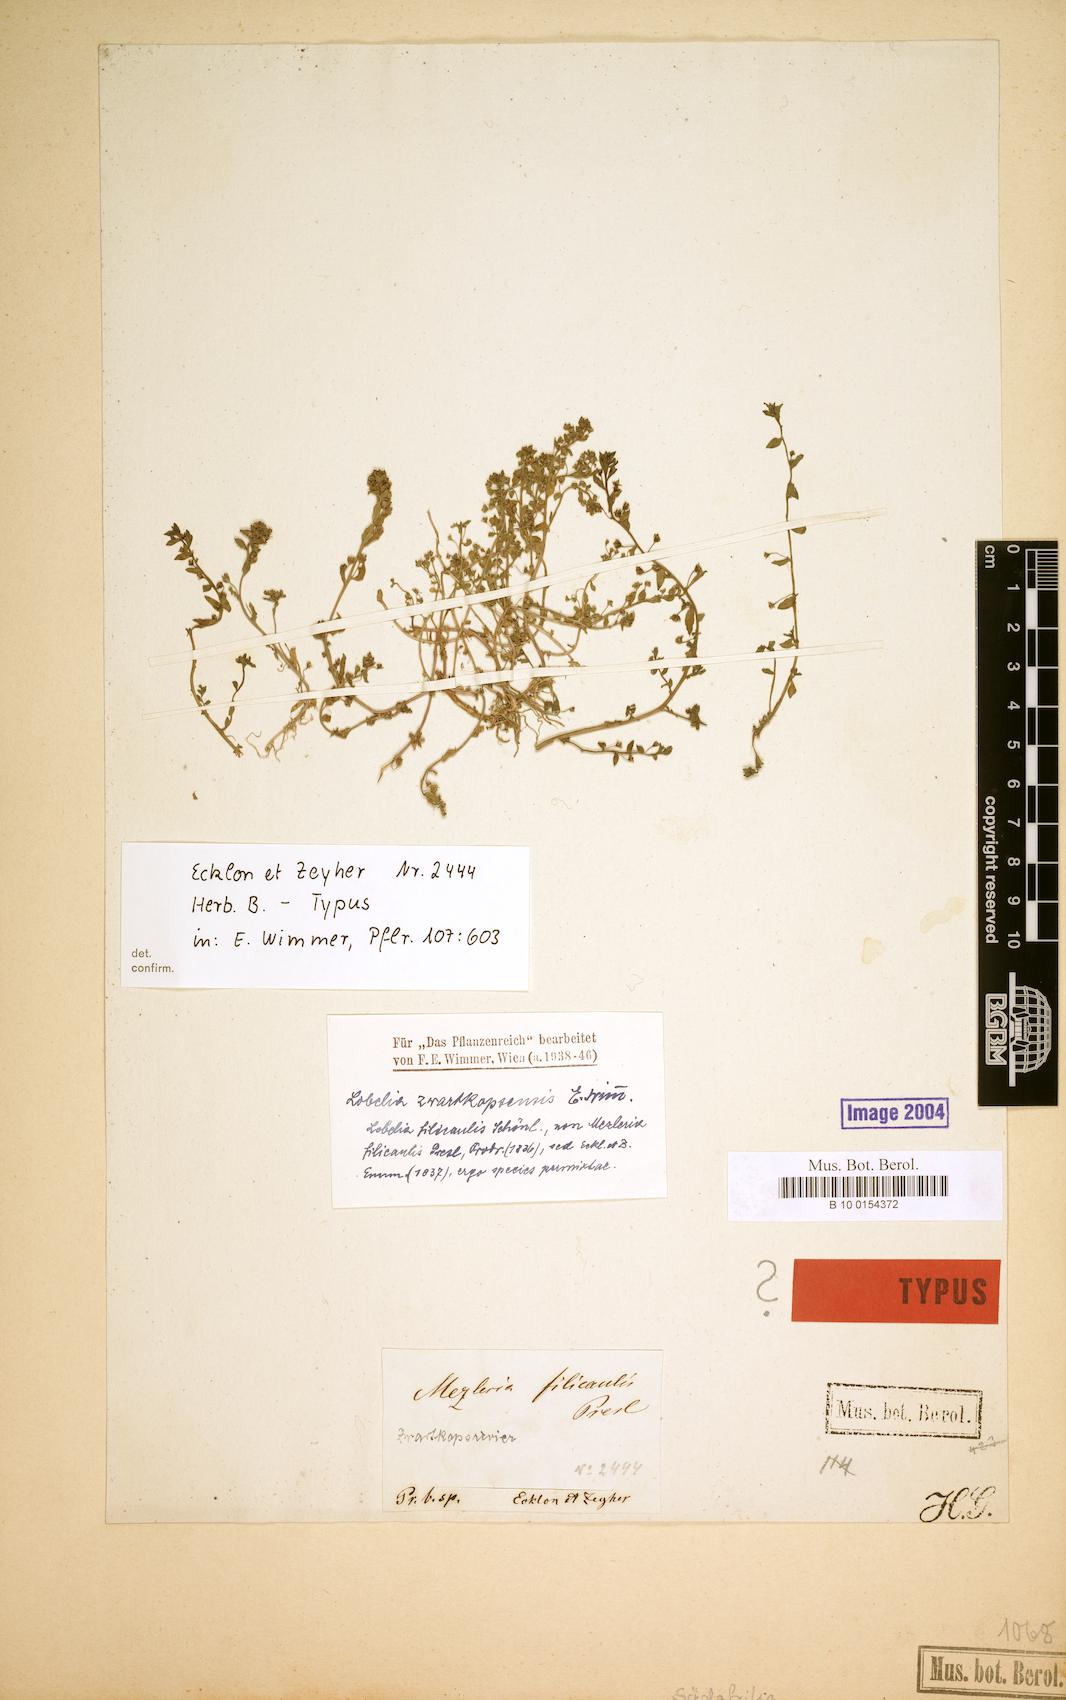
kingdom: Plantae
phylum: Tracheophyta
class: Magnoliopsida
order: Asterales
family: Campanulaceae
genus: Lobelia
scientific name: Lobelia filicaulis
